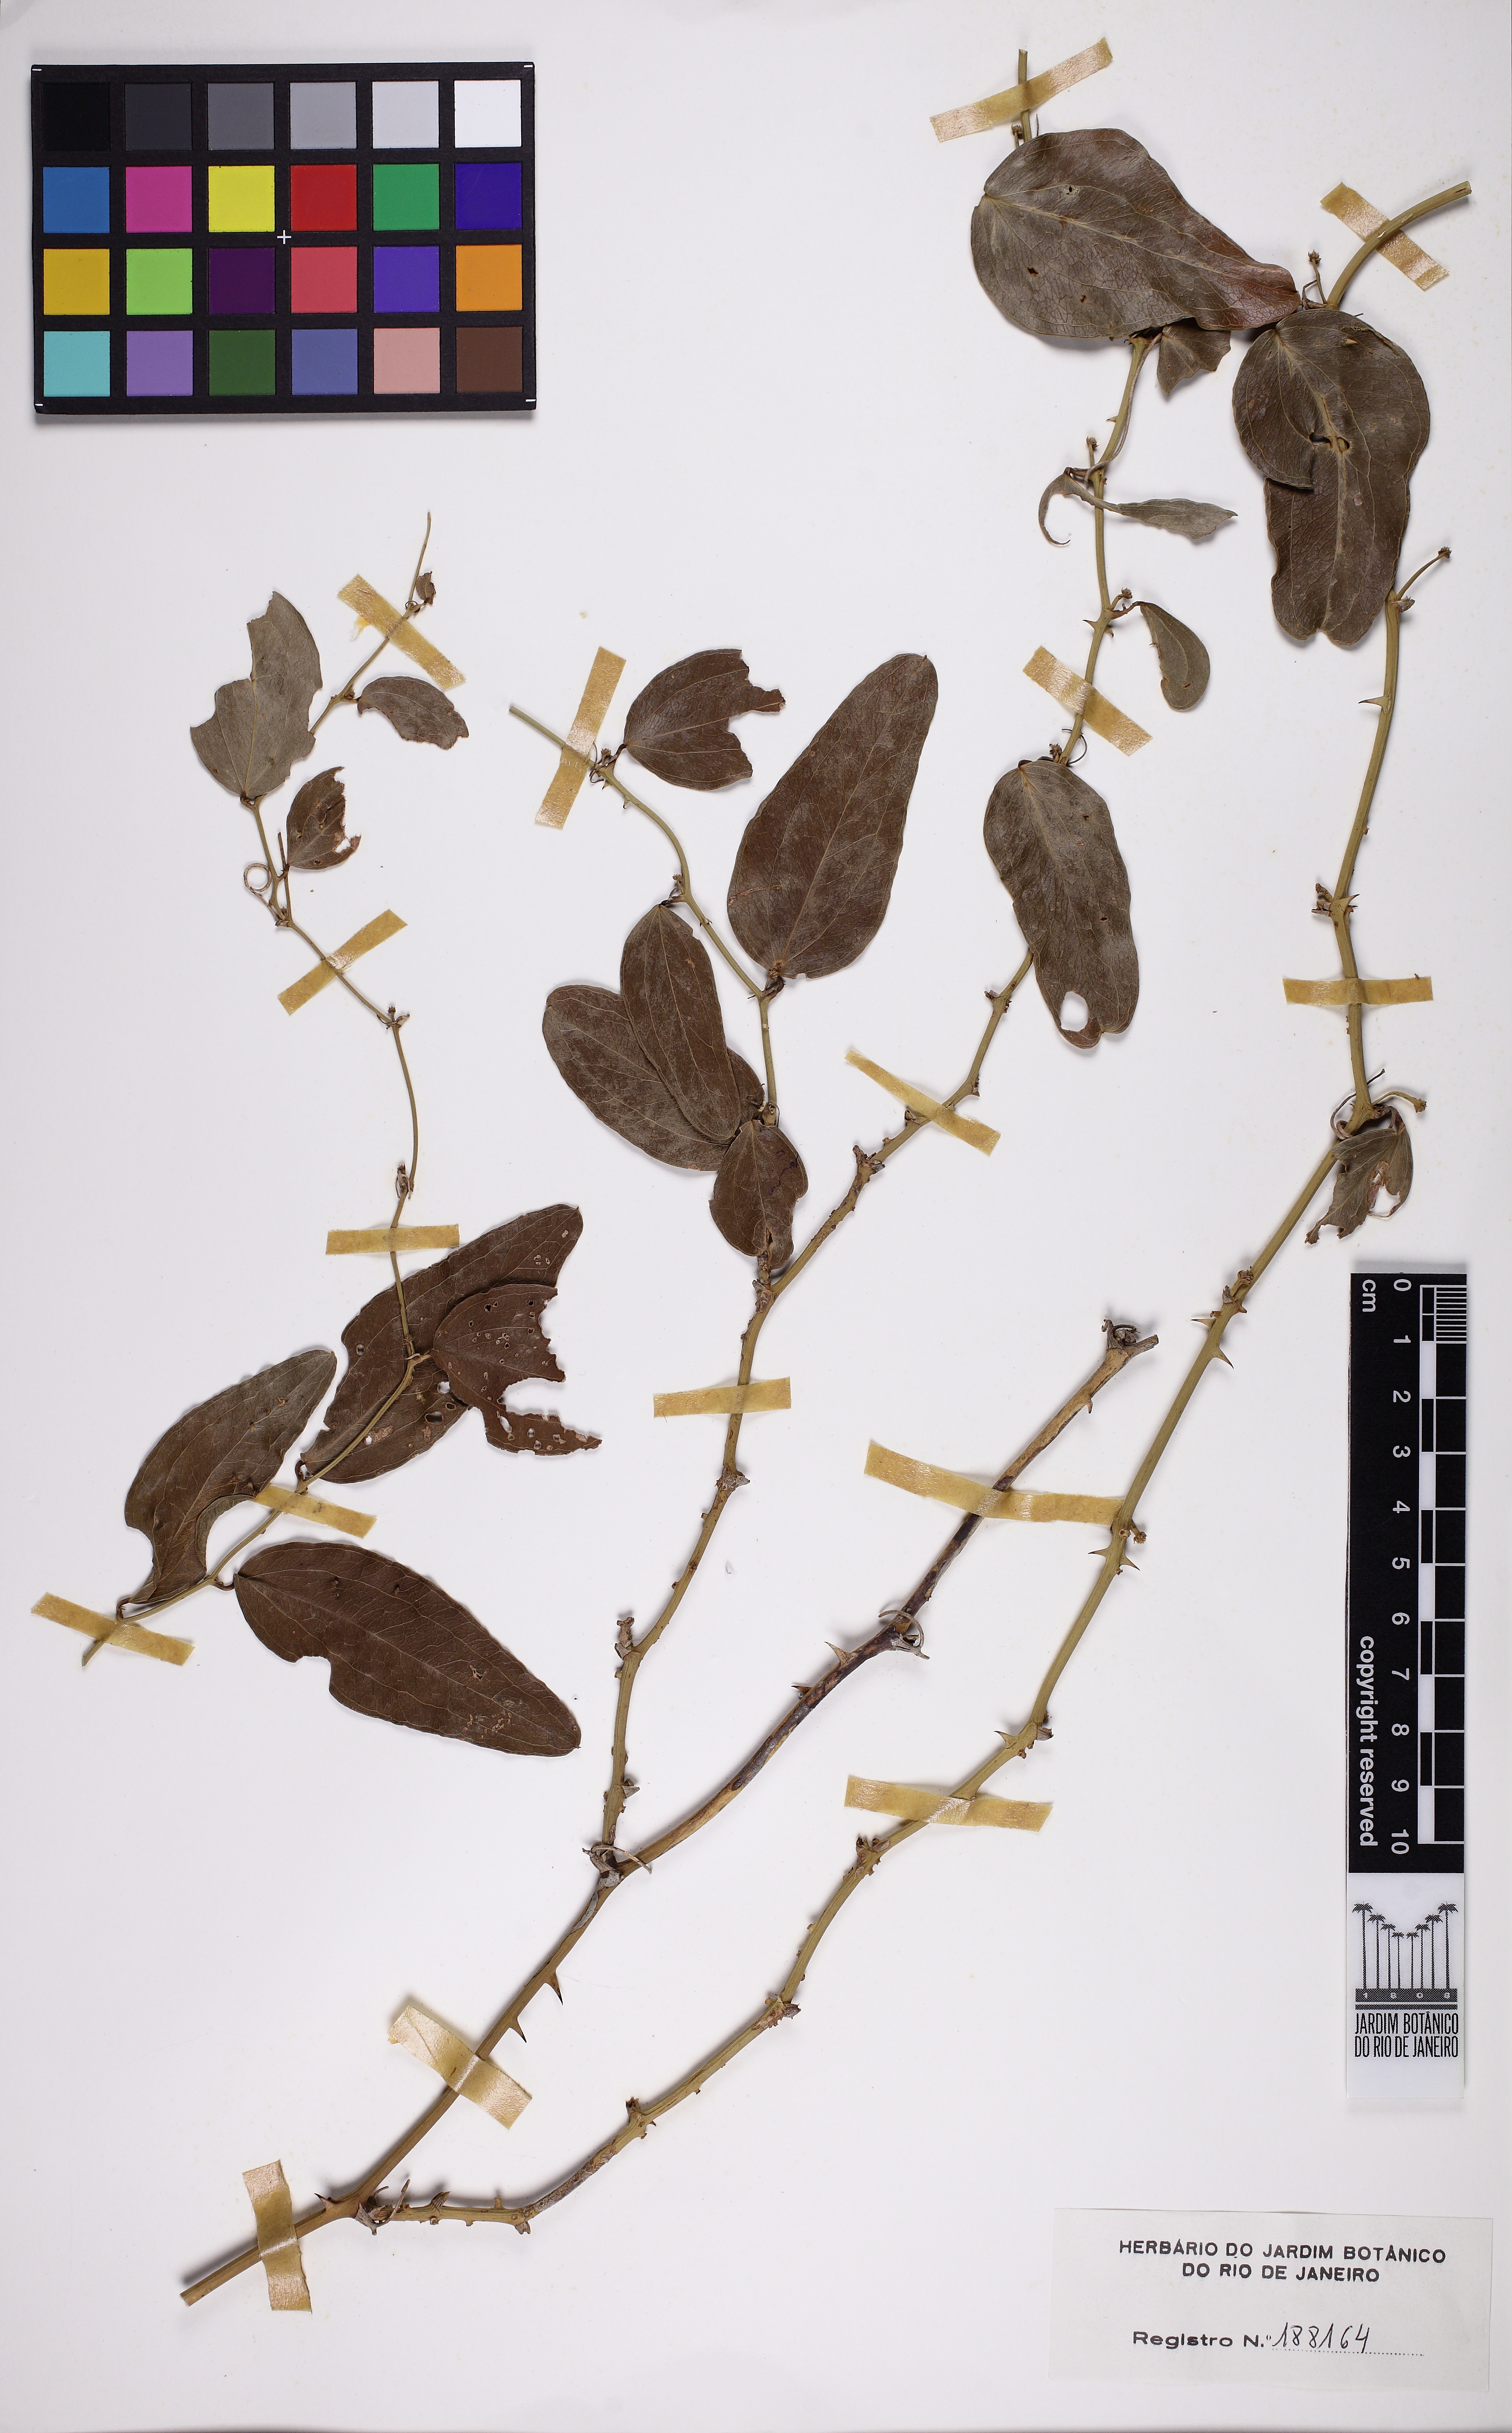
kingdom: Plantae
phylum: Tracheophyta
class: Liliopsida
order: Liliales
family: Smilacaceae
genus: Smilax
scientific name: Smilax campestris
